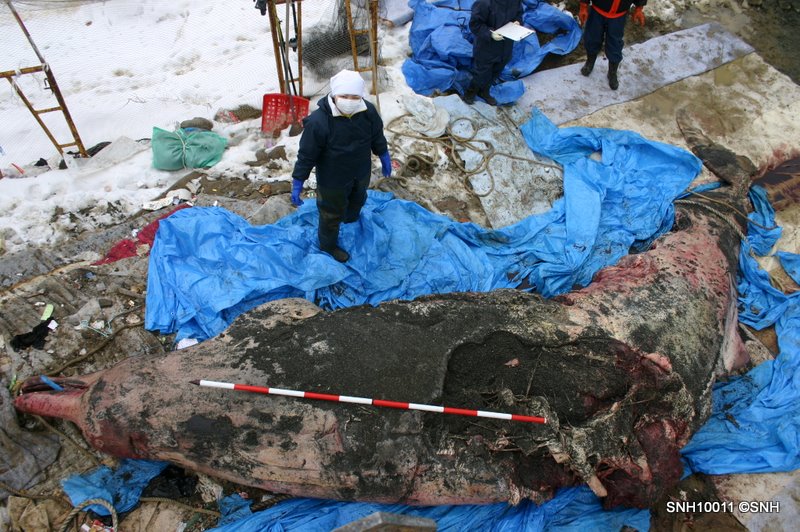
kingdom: Animalia
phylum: Chordata
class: Mammalia
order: Cetacea
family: Hyperoodontidae
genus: Berardius
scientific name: Berardius bairdii
